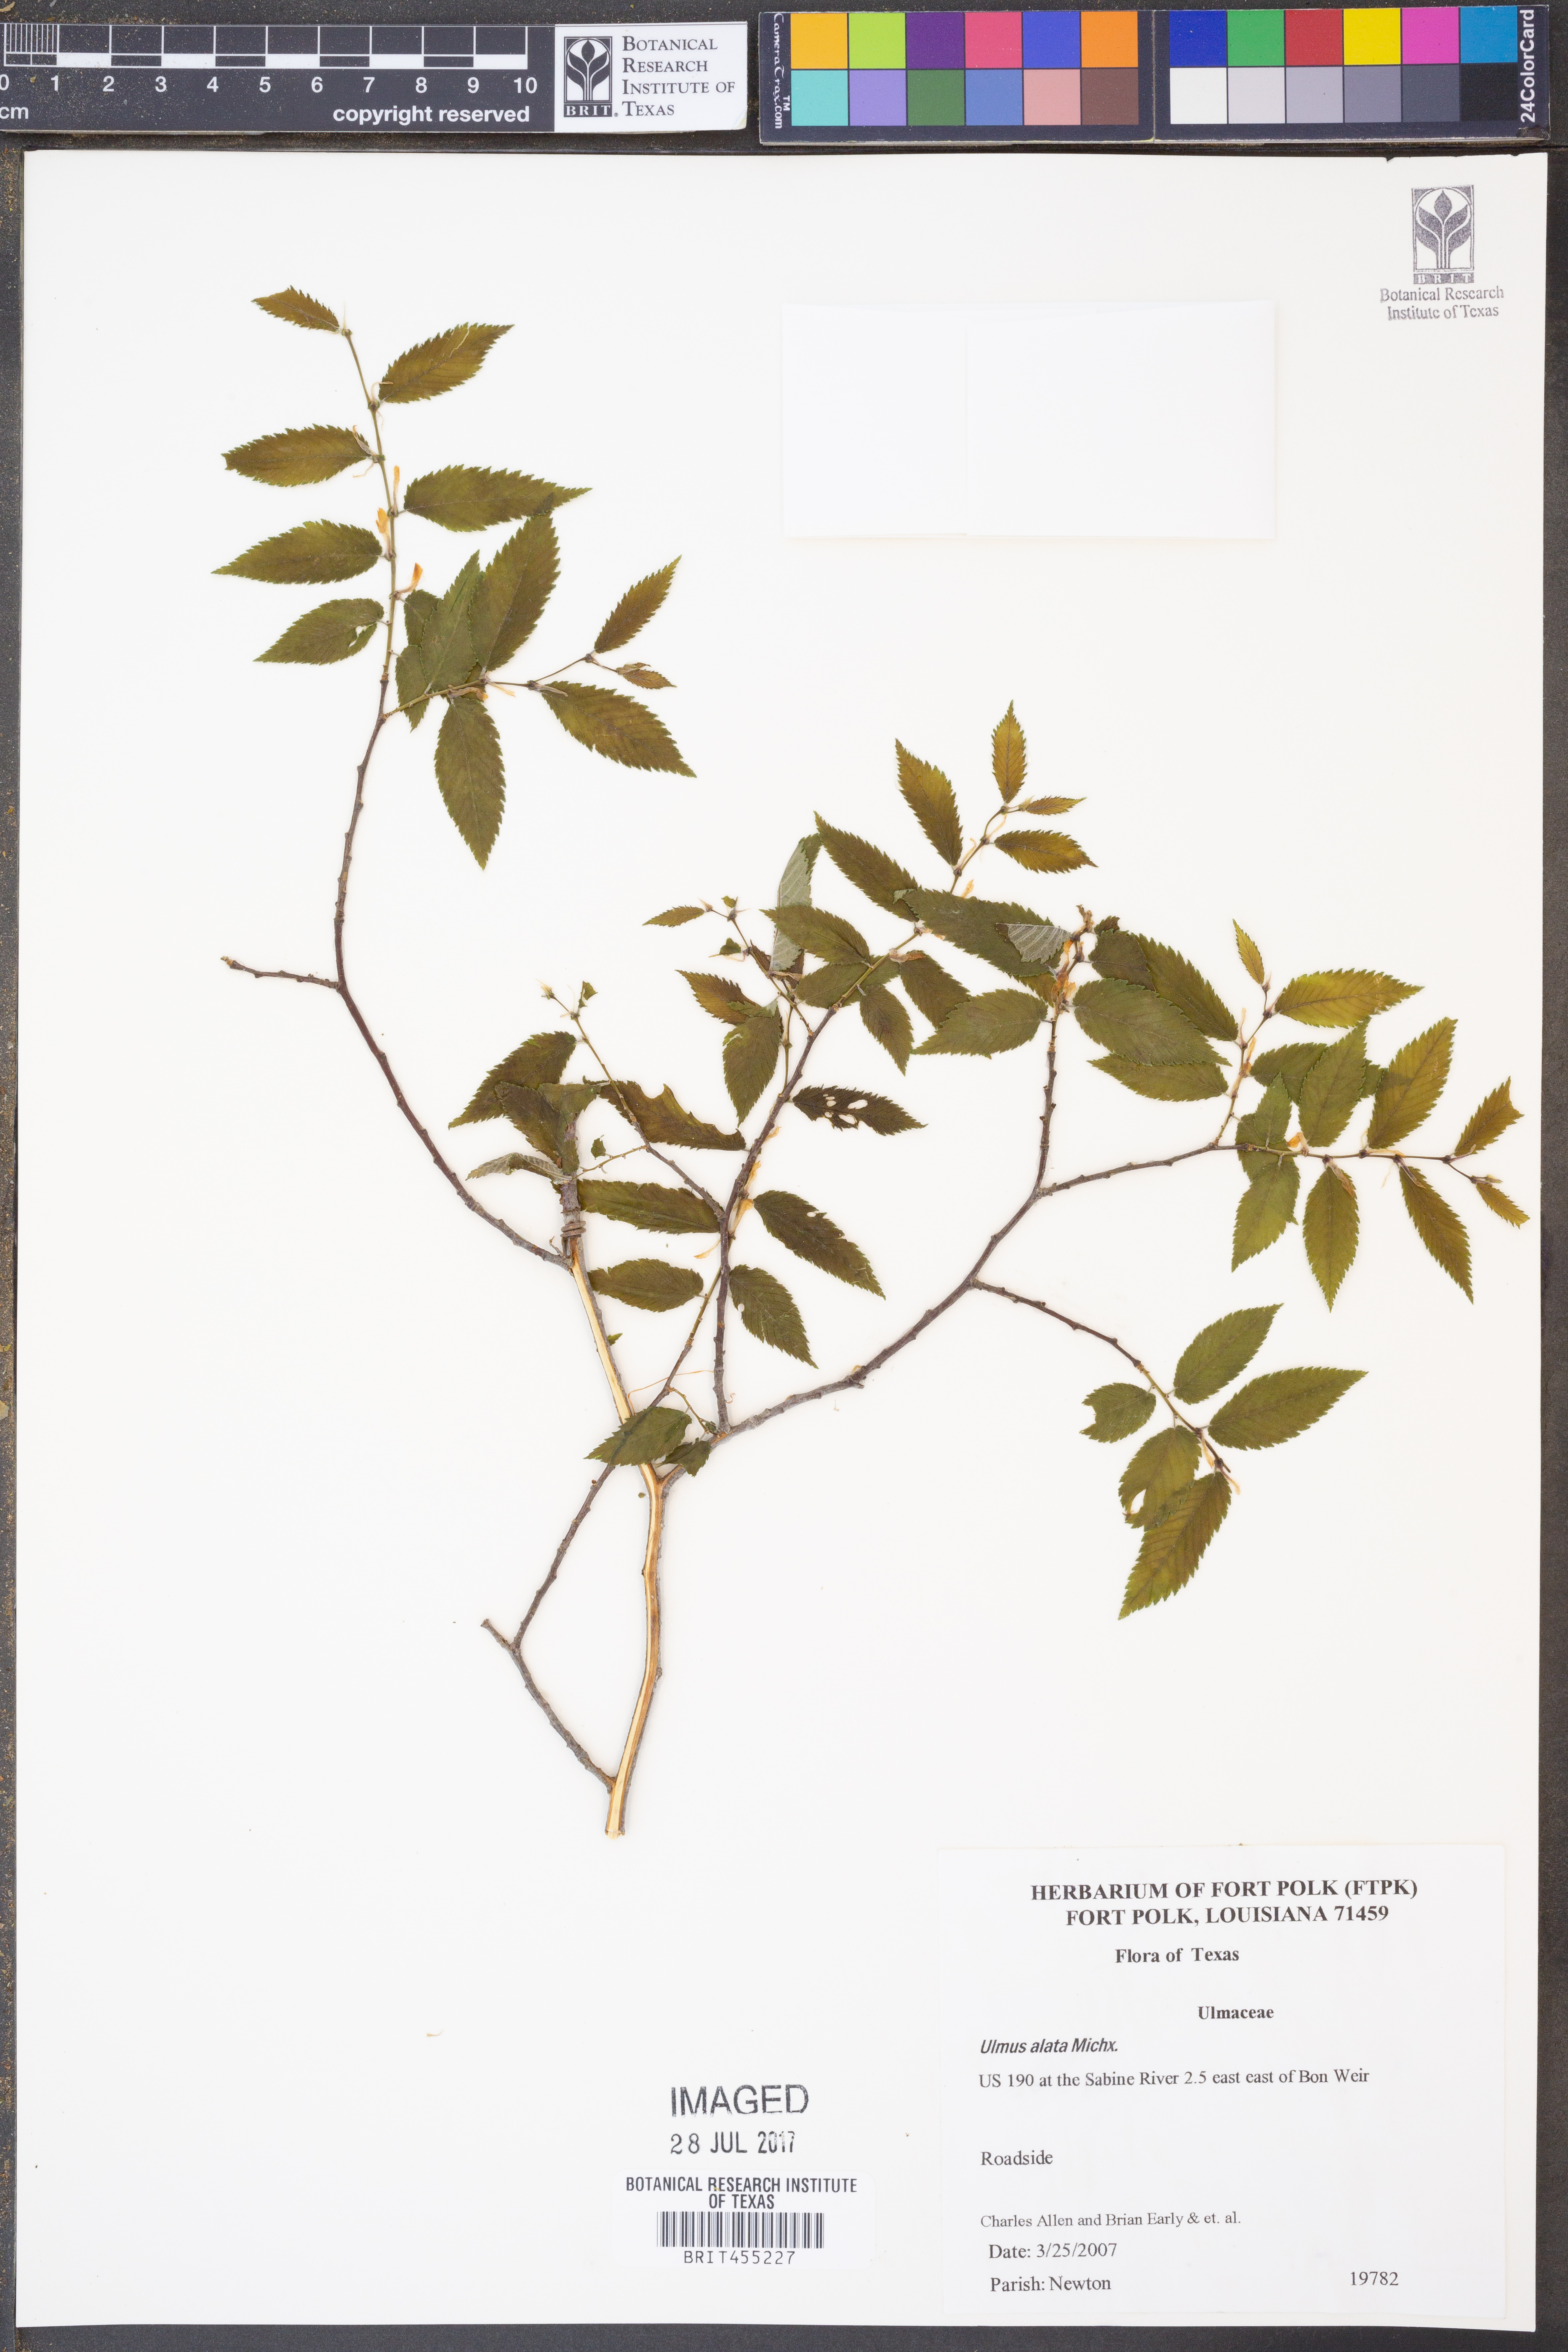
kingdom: Plantae
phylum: Tracheophyta
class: Magnoliopsida
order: Rosales
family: Ulmaceae
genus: Ulmus
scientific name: Ulmus alata
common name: Winged elm
